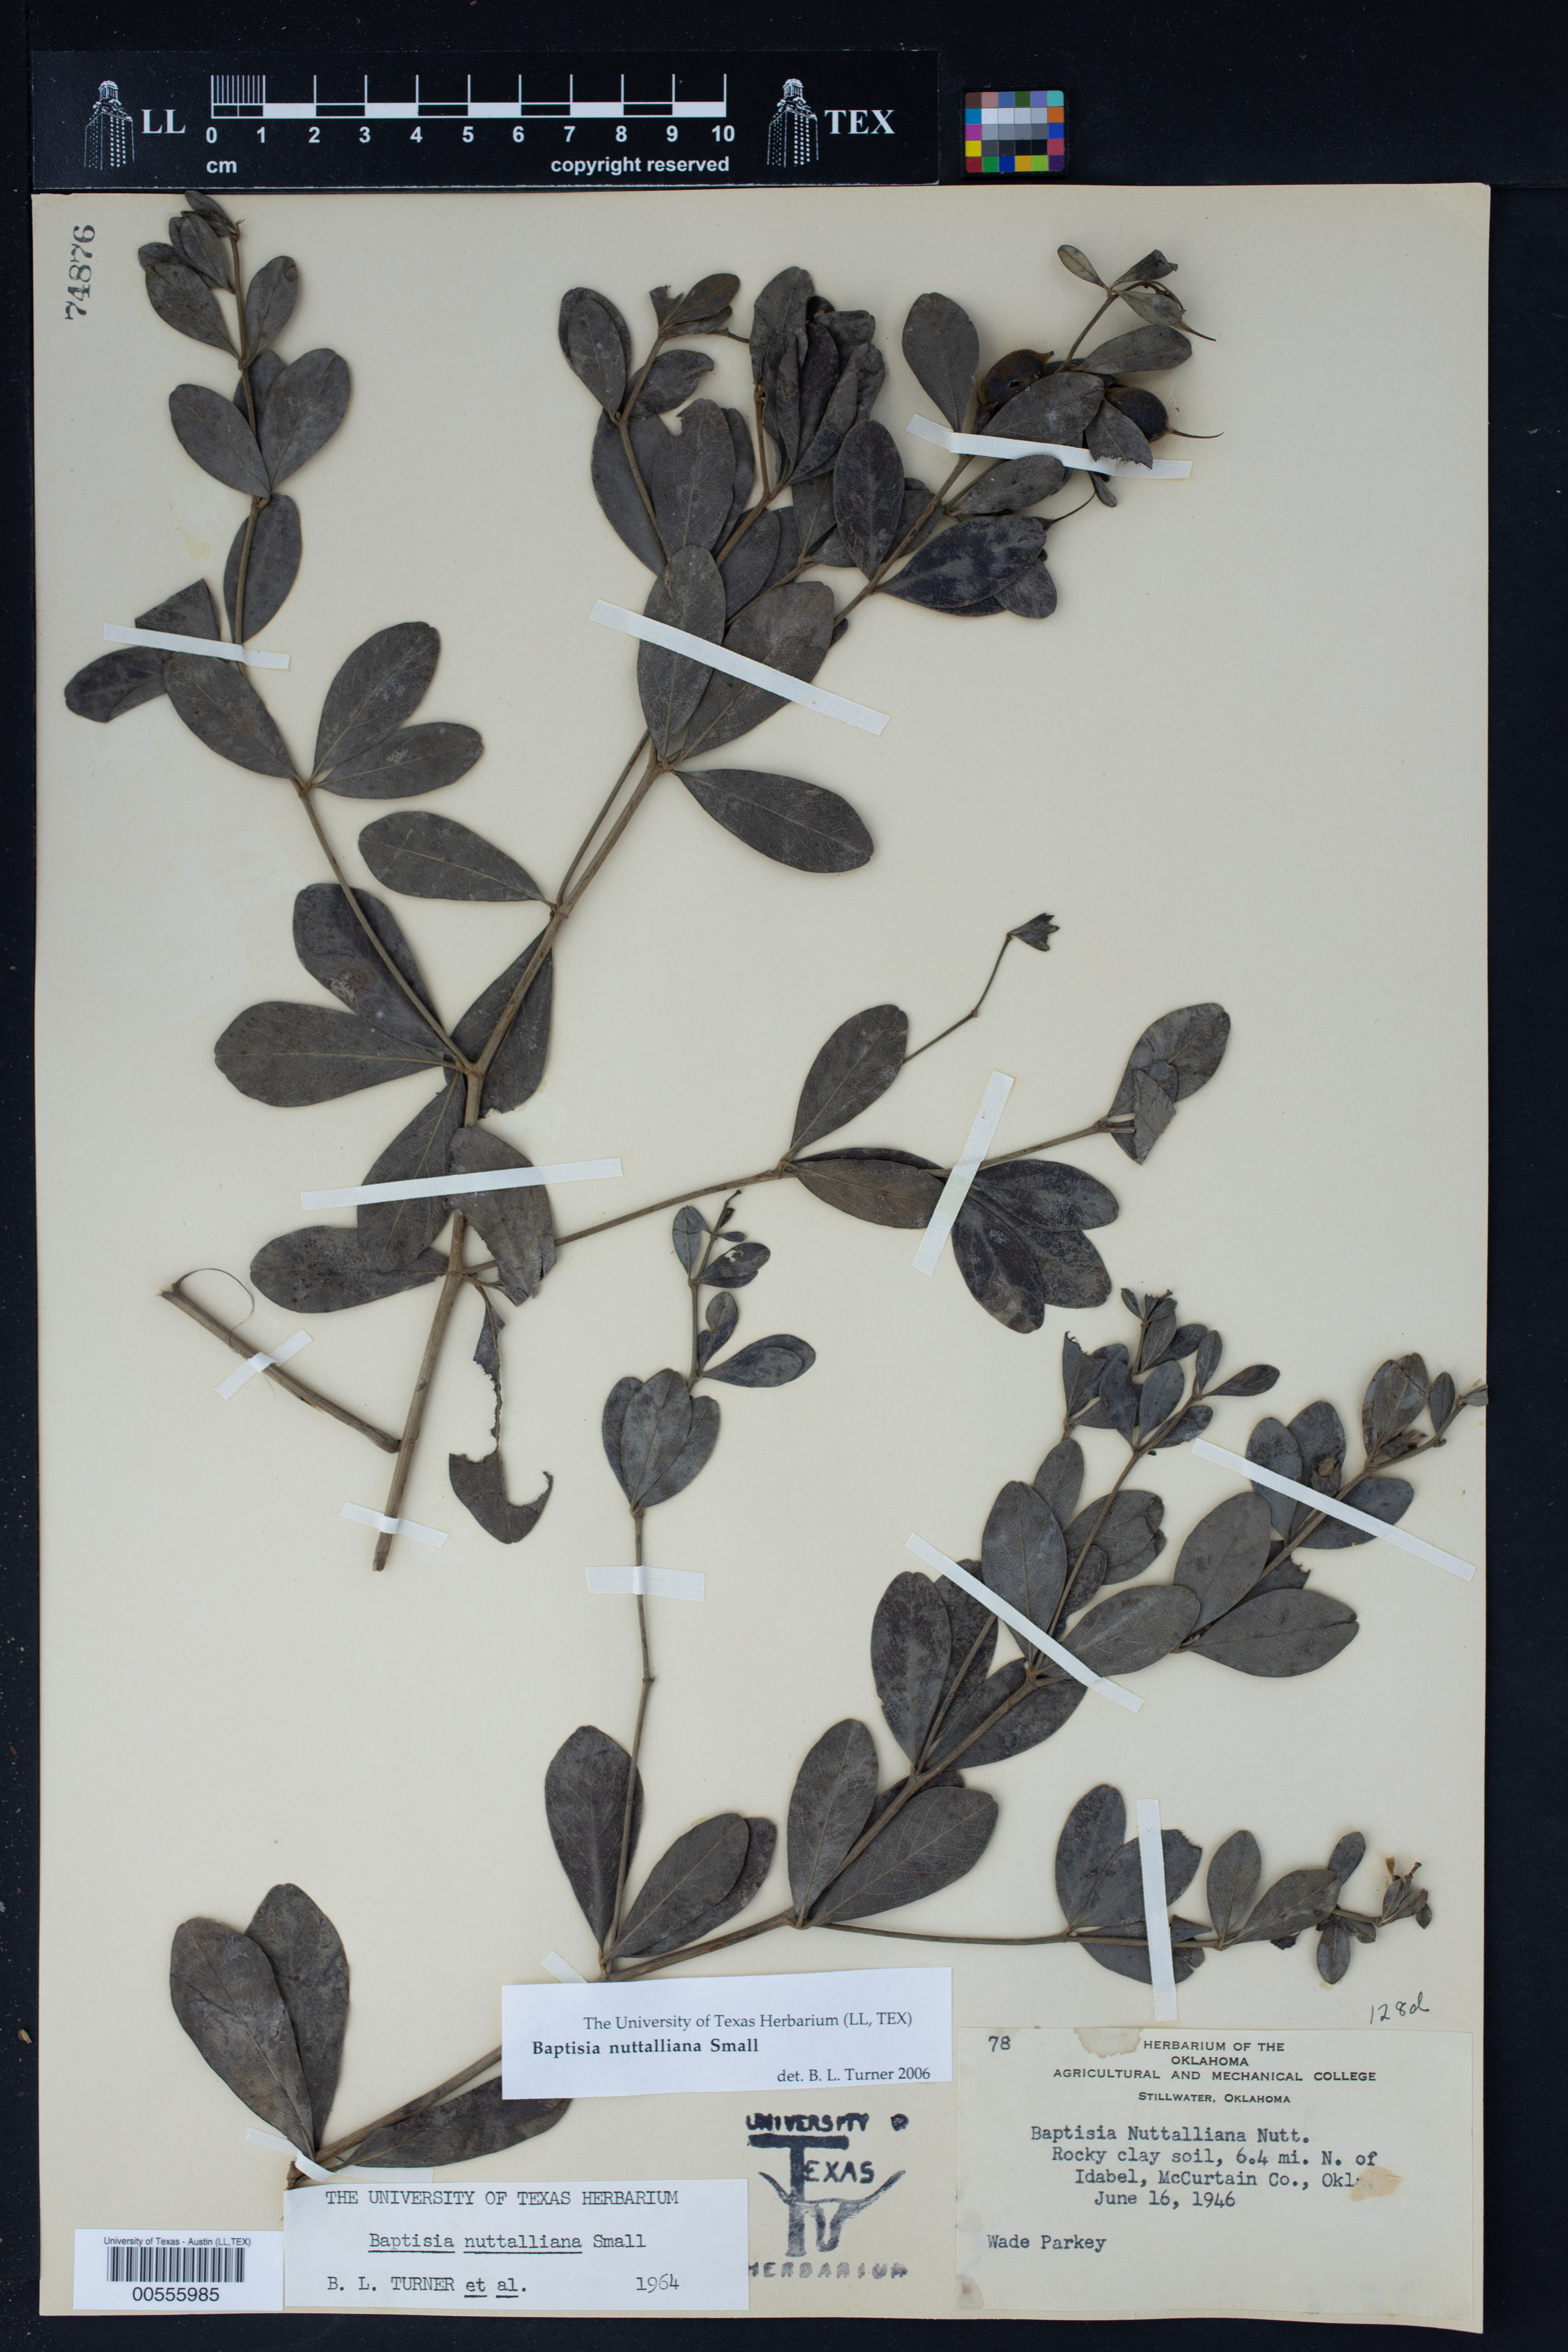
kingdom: Plantae
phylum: Tracheophyta
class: Magnoliopsida
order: Fabales
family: Fabaceae
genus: Baptisia
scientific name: Baptisia nuttalliana
